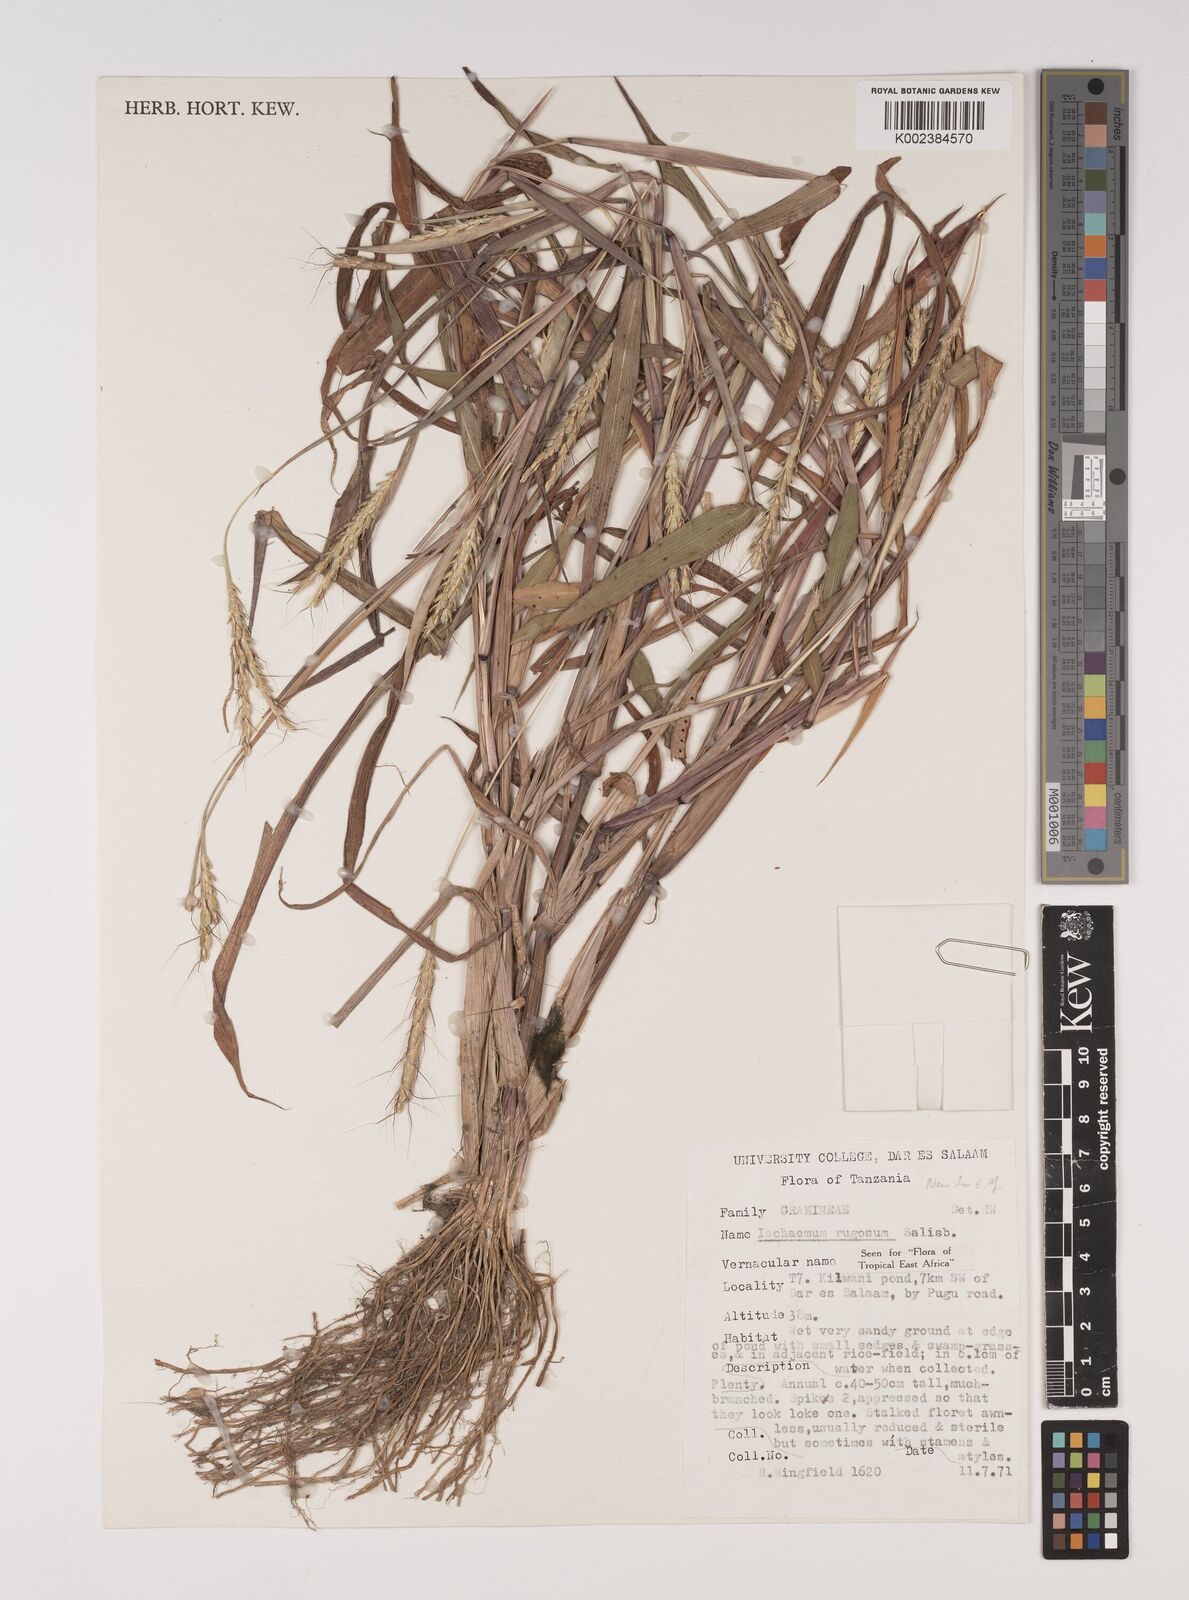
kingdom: Plantae
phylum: Tracheophyta
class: Liliopsida
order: Poales
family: Poaceae
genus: Ischaemum
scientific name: Ischaemum rugosum
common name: Saramatta grass
